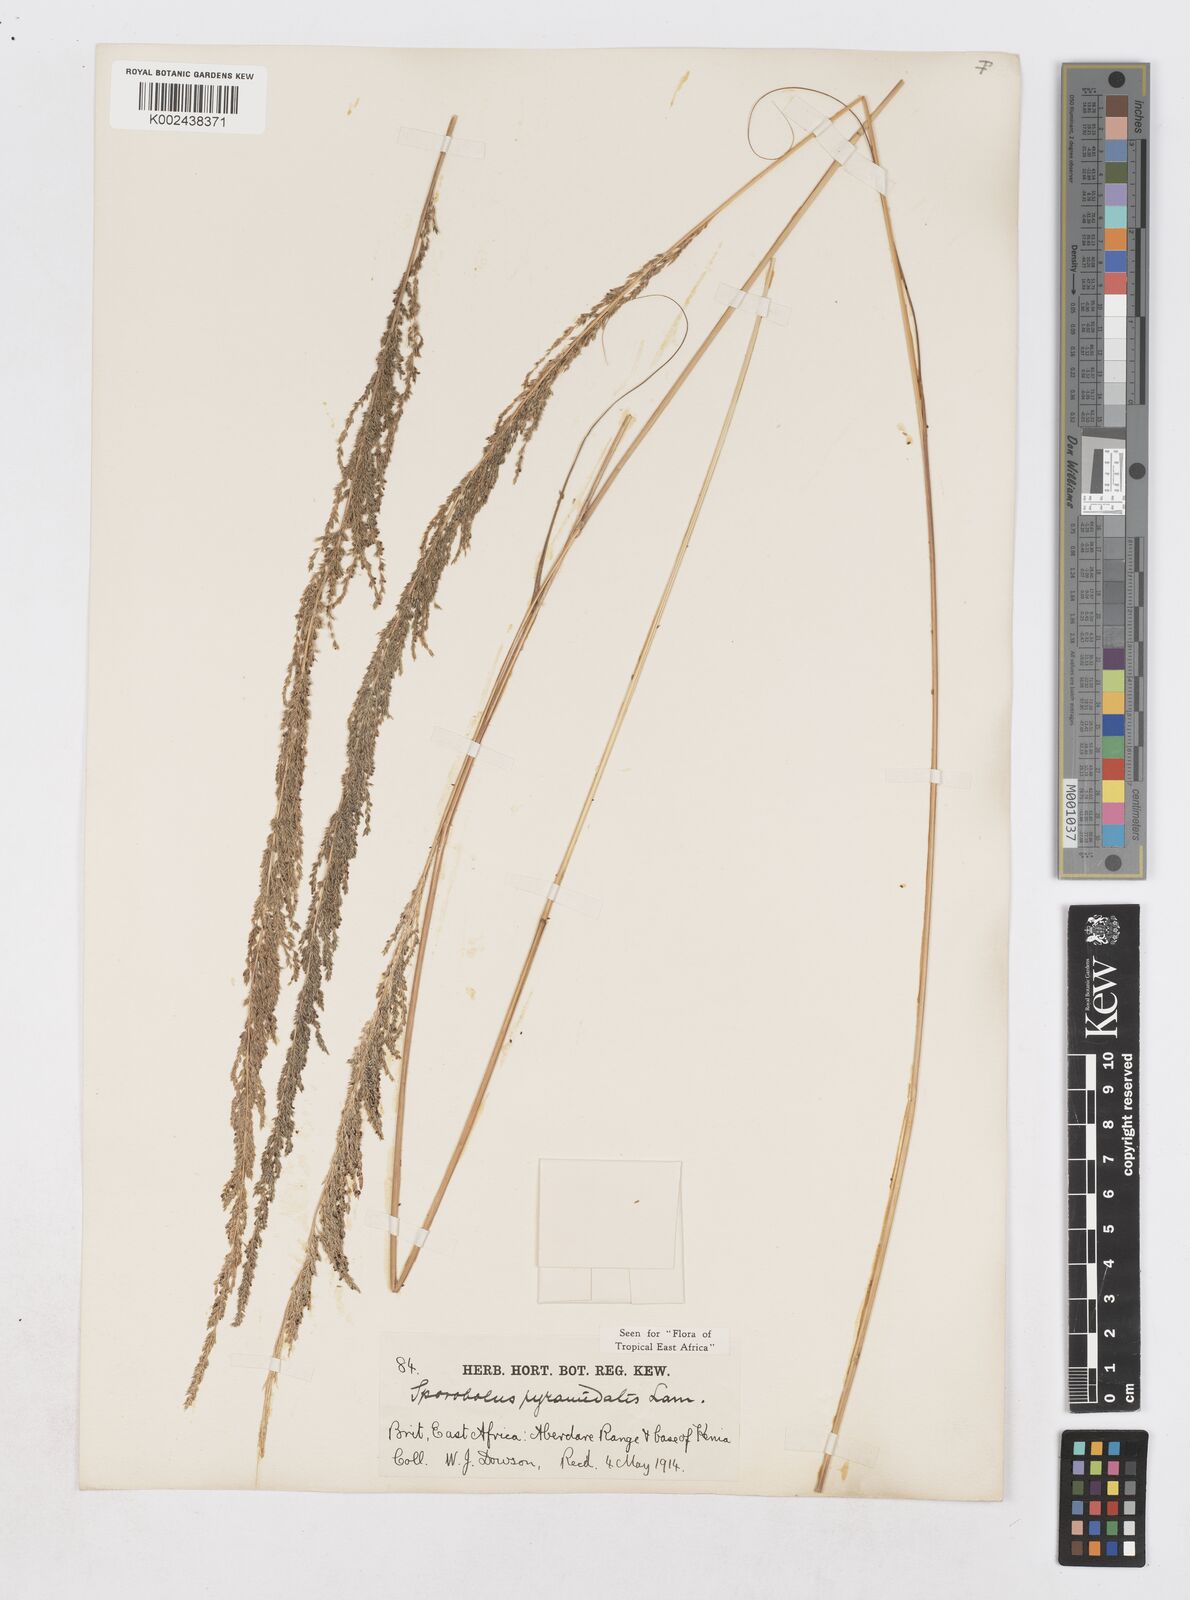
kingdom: Plantae
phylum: Tracheophyta
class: Liliopsida
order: Poales
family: Poaceae
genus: Sporobolus
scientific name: Sporobolus pyramidalis
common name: West indian dropseed
